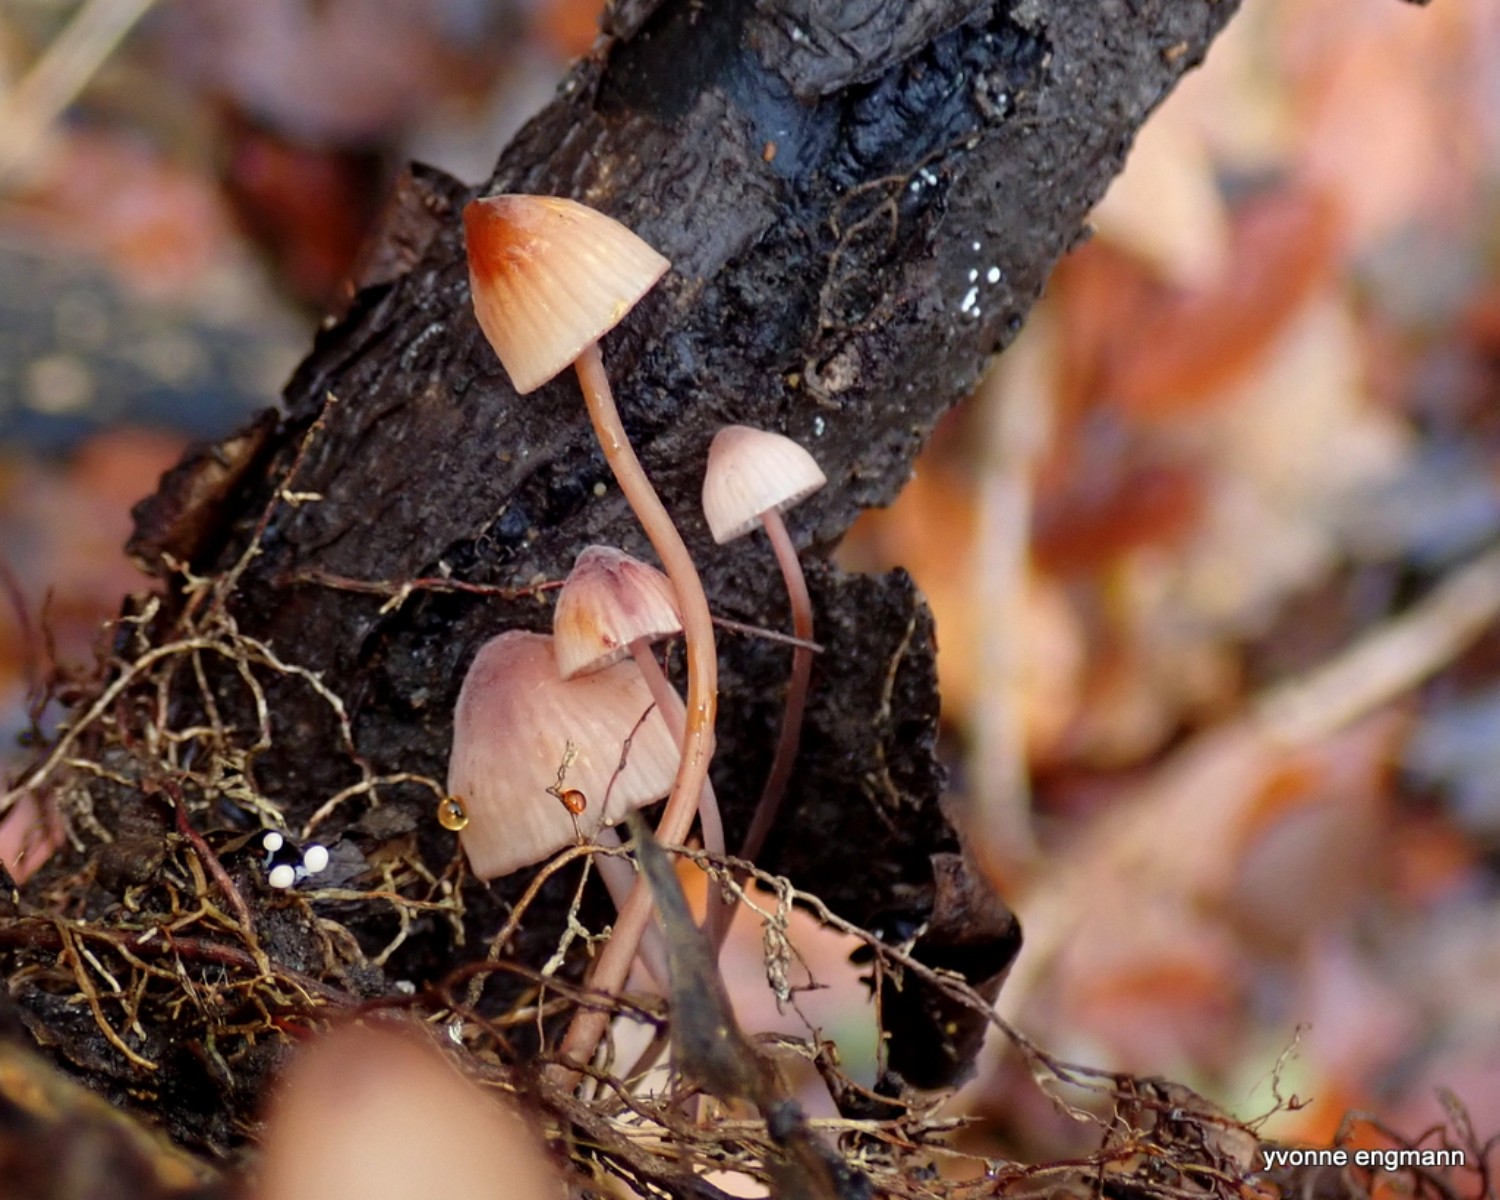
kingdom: Fungi
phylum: Basidiomycota
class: Agaricomycetes
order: Agaricales
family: Mycenaceae
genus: Mycena
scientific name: Mycena sanguinolenta
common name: rødmælket huesvamp
